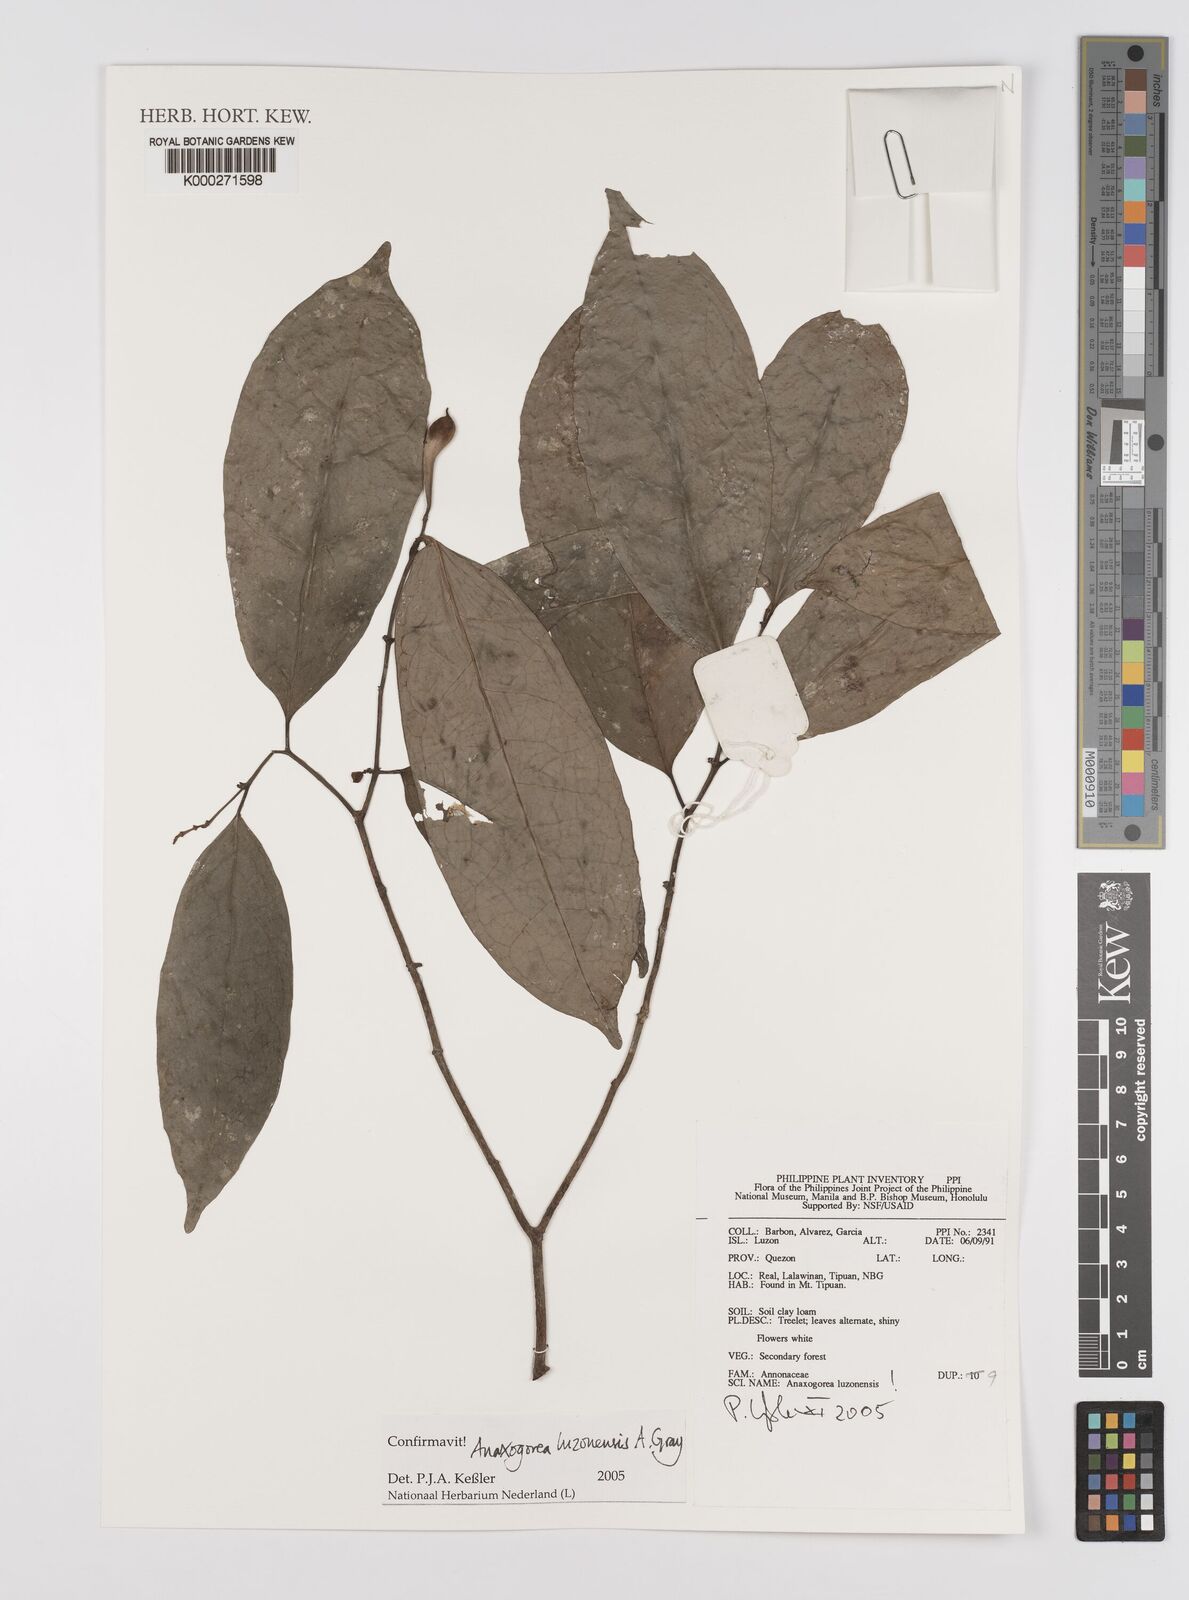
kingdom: Plantae
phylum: Tracheophyta
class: Magnoliopsida
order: Magnoliales
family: Annonaceae
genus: Anaxagorea
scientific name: Anaxagorea luzonensis
